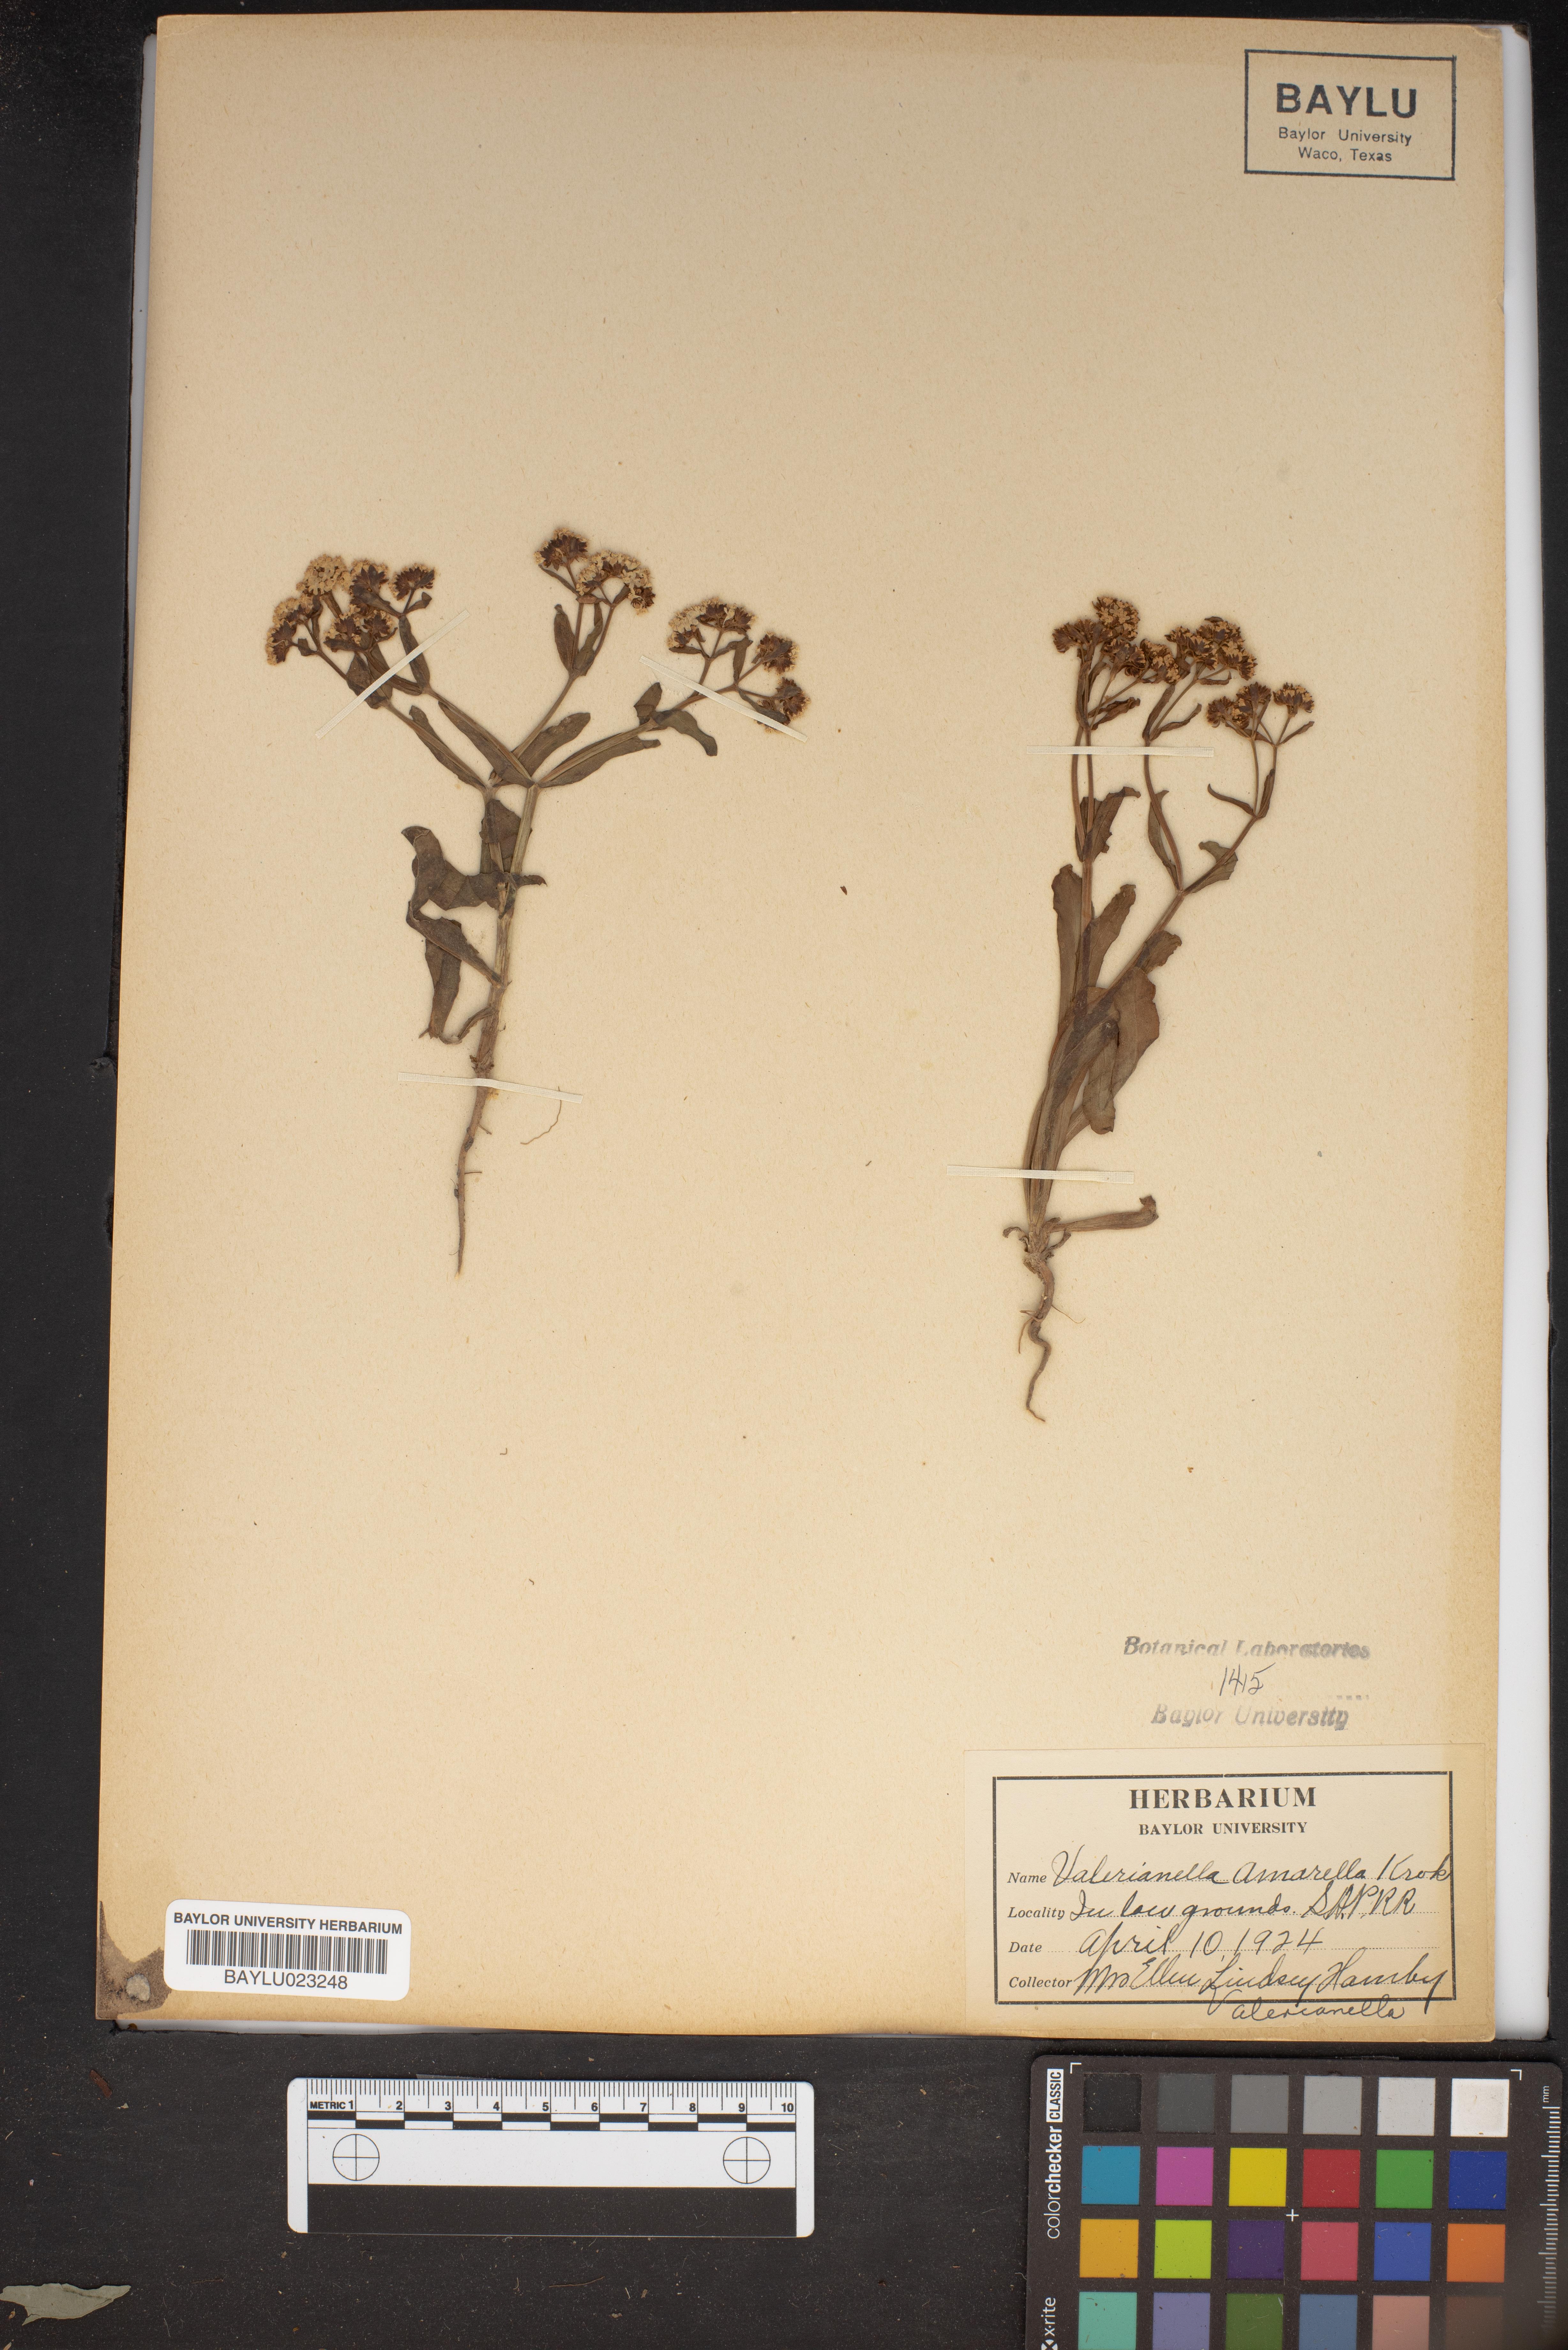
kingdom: Plantae
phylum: Tracheophyta
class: Magnoliopsida
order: Dipsacales
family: Caprifoliaceae
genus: Valerianella
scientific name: Valerianella amarella
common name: Hariy cornsalad
